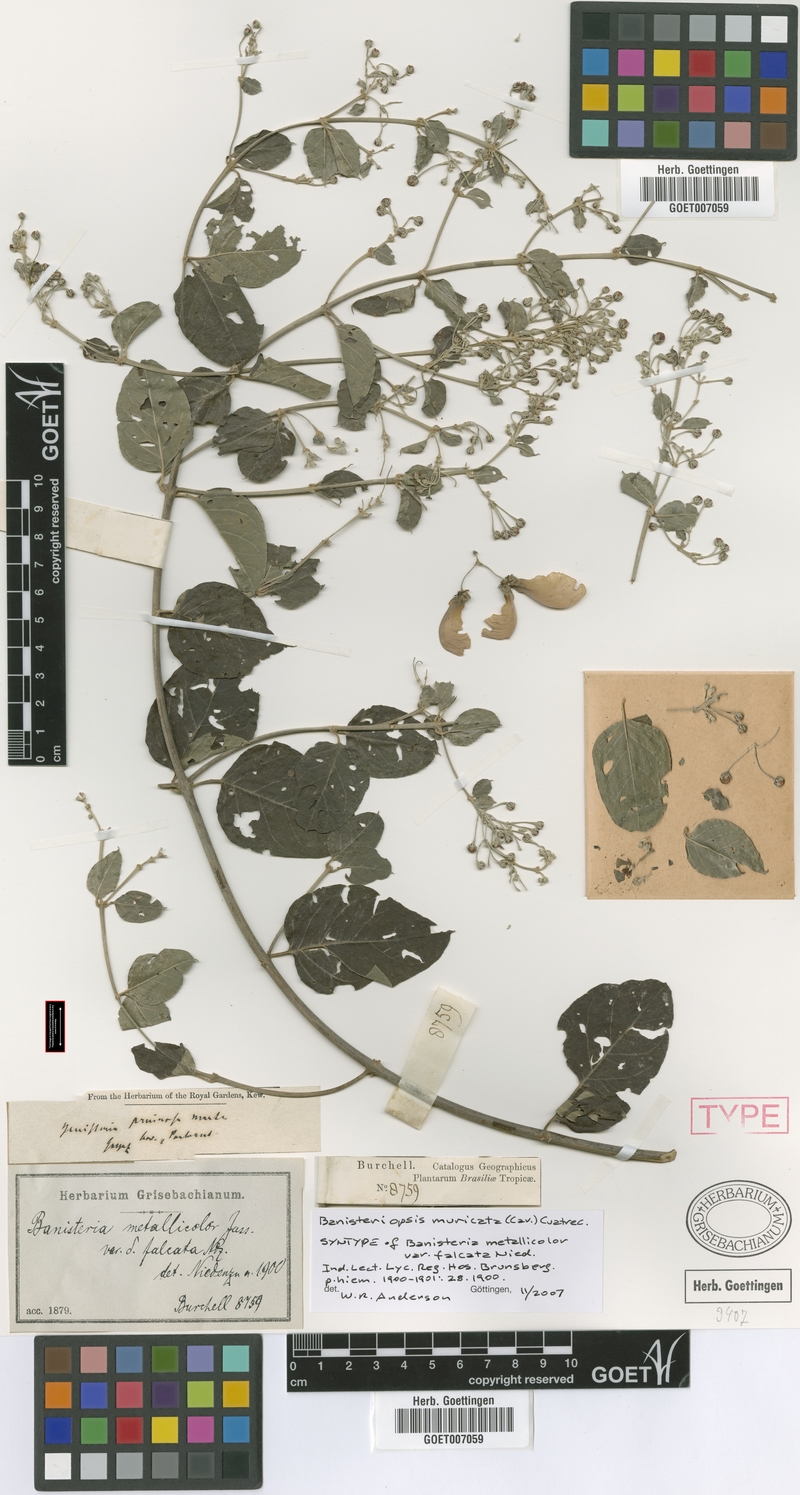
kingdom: Plantae
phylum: Tracheophyta
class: Magnoliopsida
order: Malpighiales
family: Malpighiaceae
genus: Banisteriopsis
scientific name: Banisteriopsis muricata
